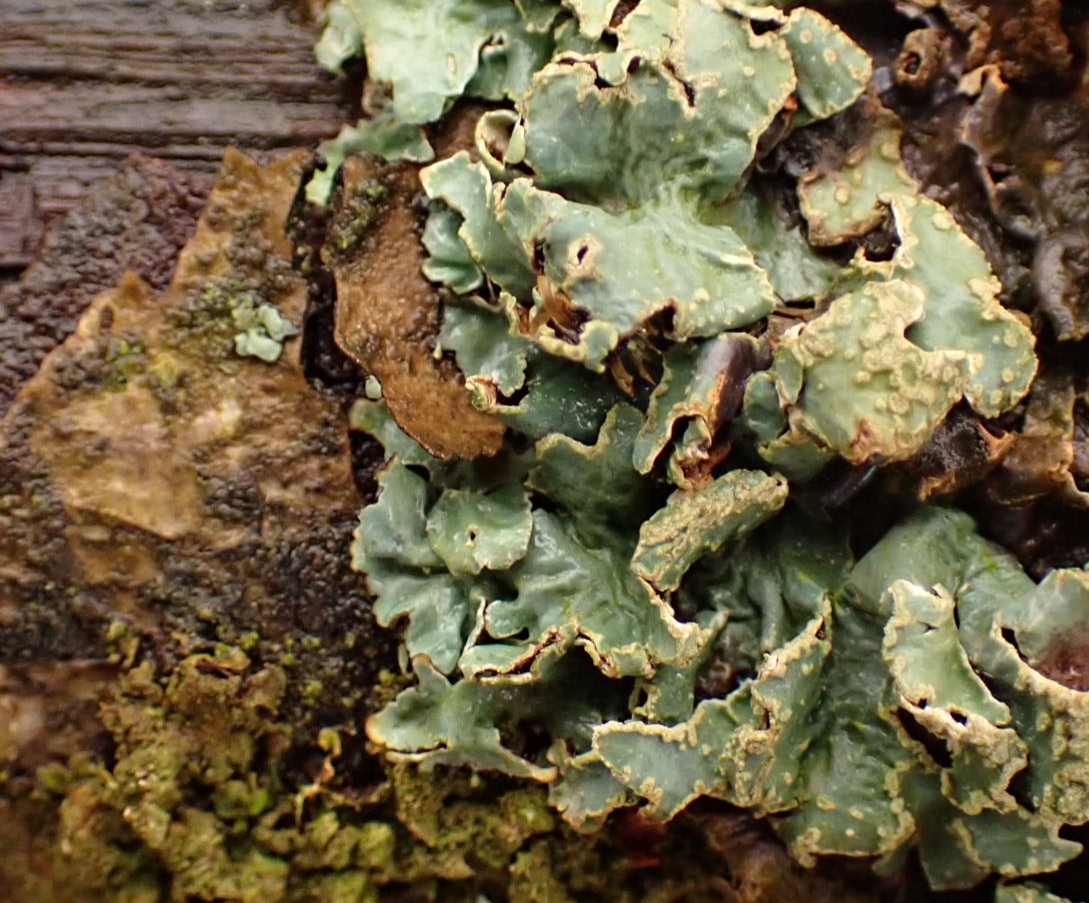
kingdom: Fungi
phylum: Ascomycota
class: Lecanoromycetes
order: Lecanorales
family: Parmeliaceae
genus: Parmelia
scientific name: Parmelia sulcata
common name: Rynket skållav
